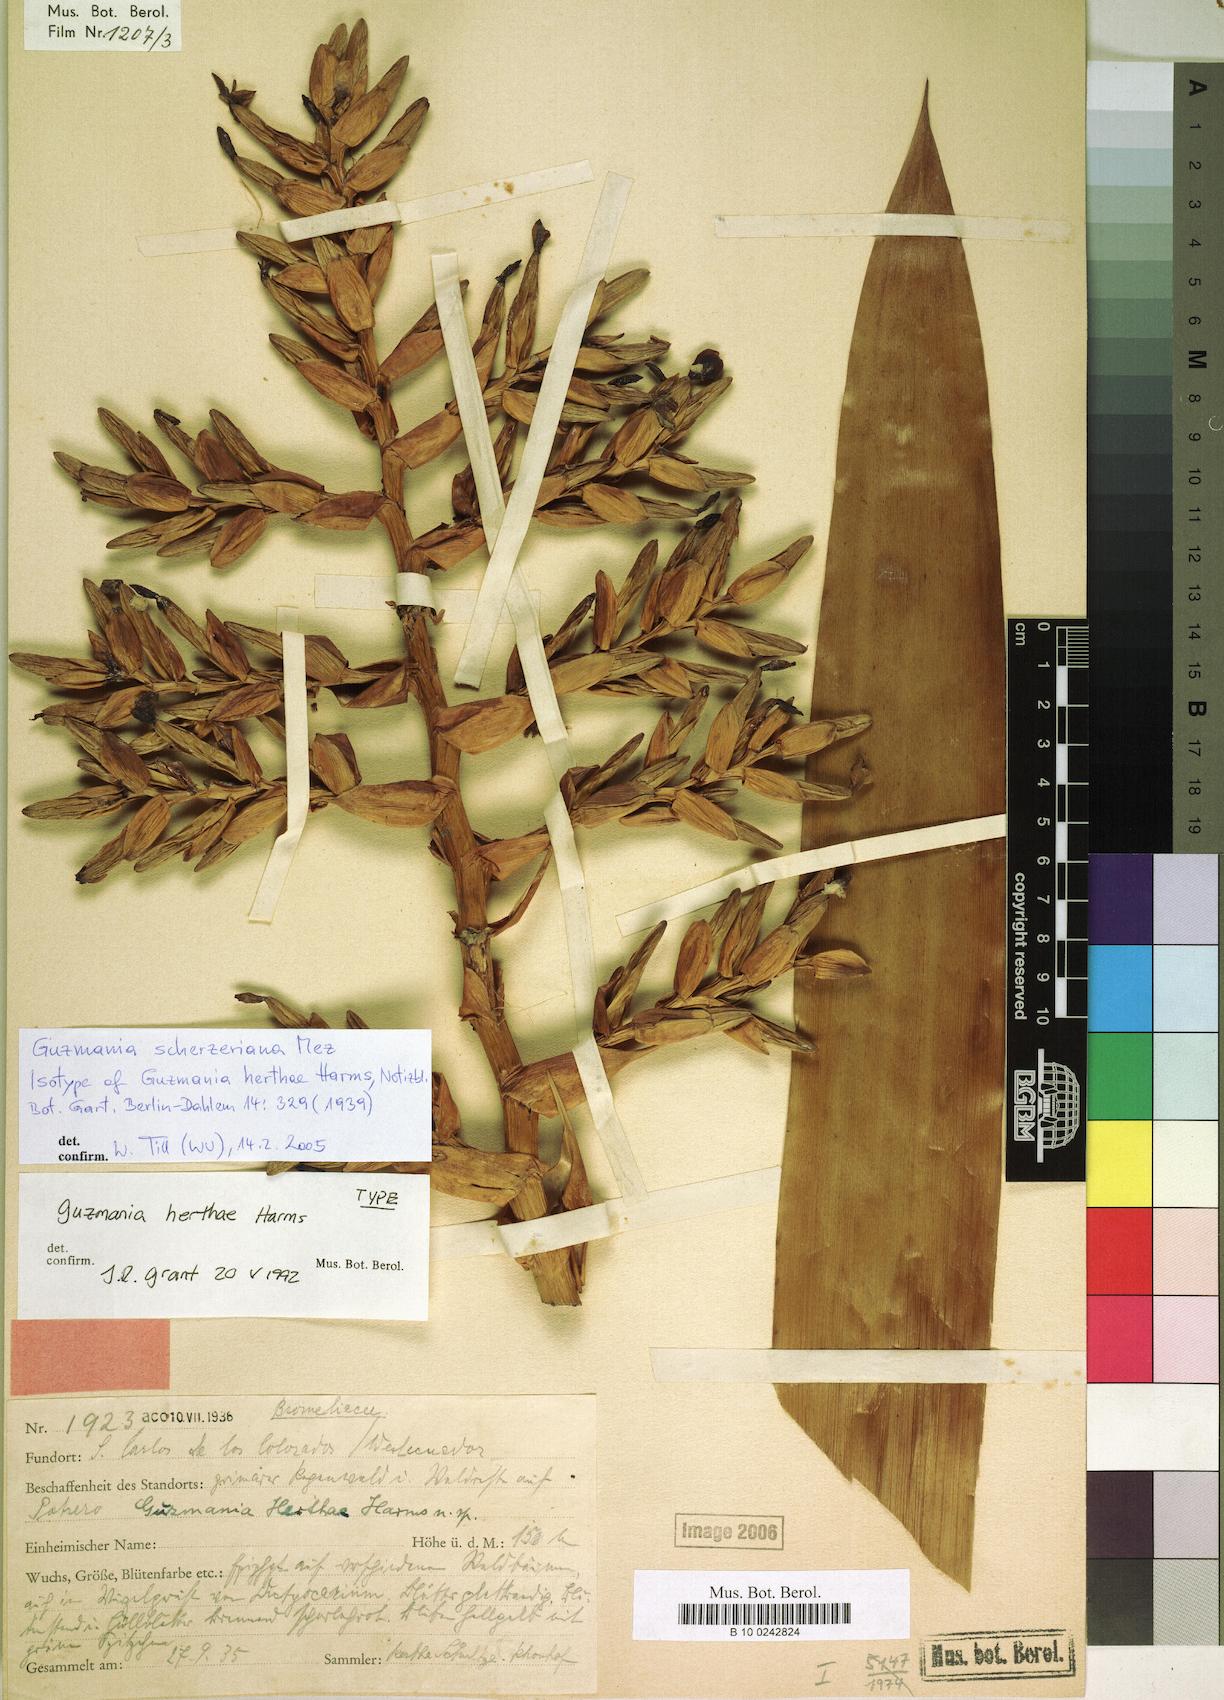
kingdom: Plantae
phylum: Tracheophyta
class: Liliopsida
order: Poales
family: Bromeliaceae
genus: Guzmania
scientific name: Guzmania scherzeriana
